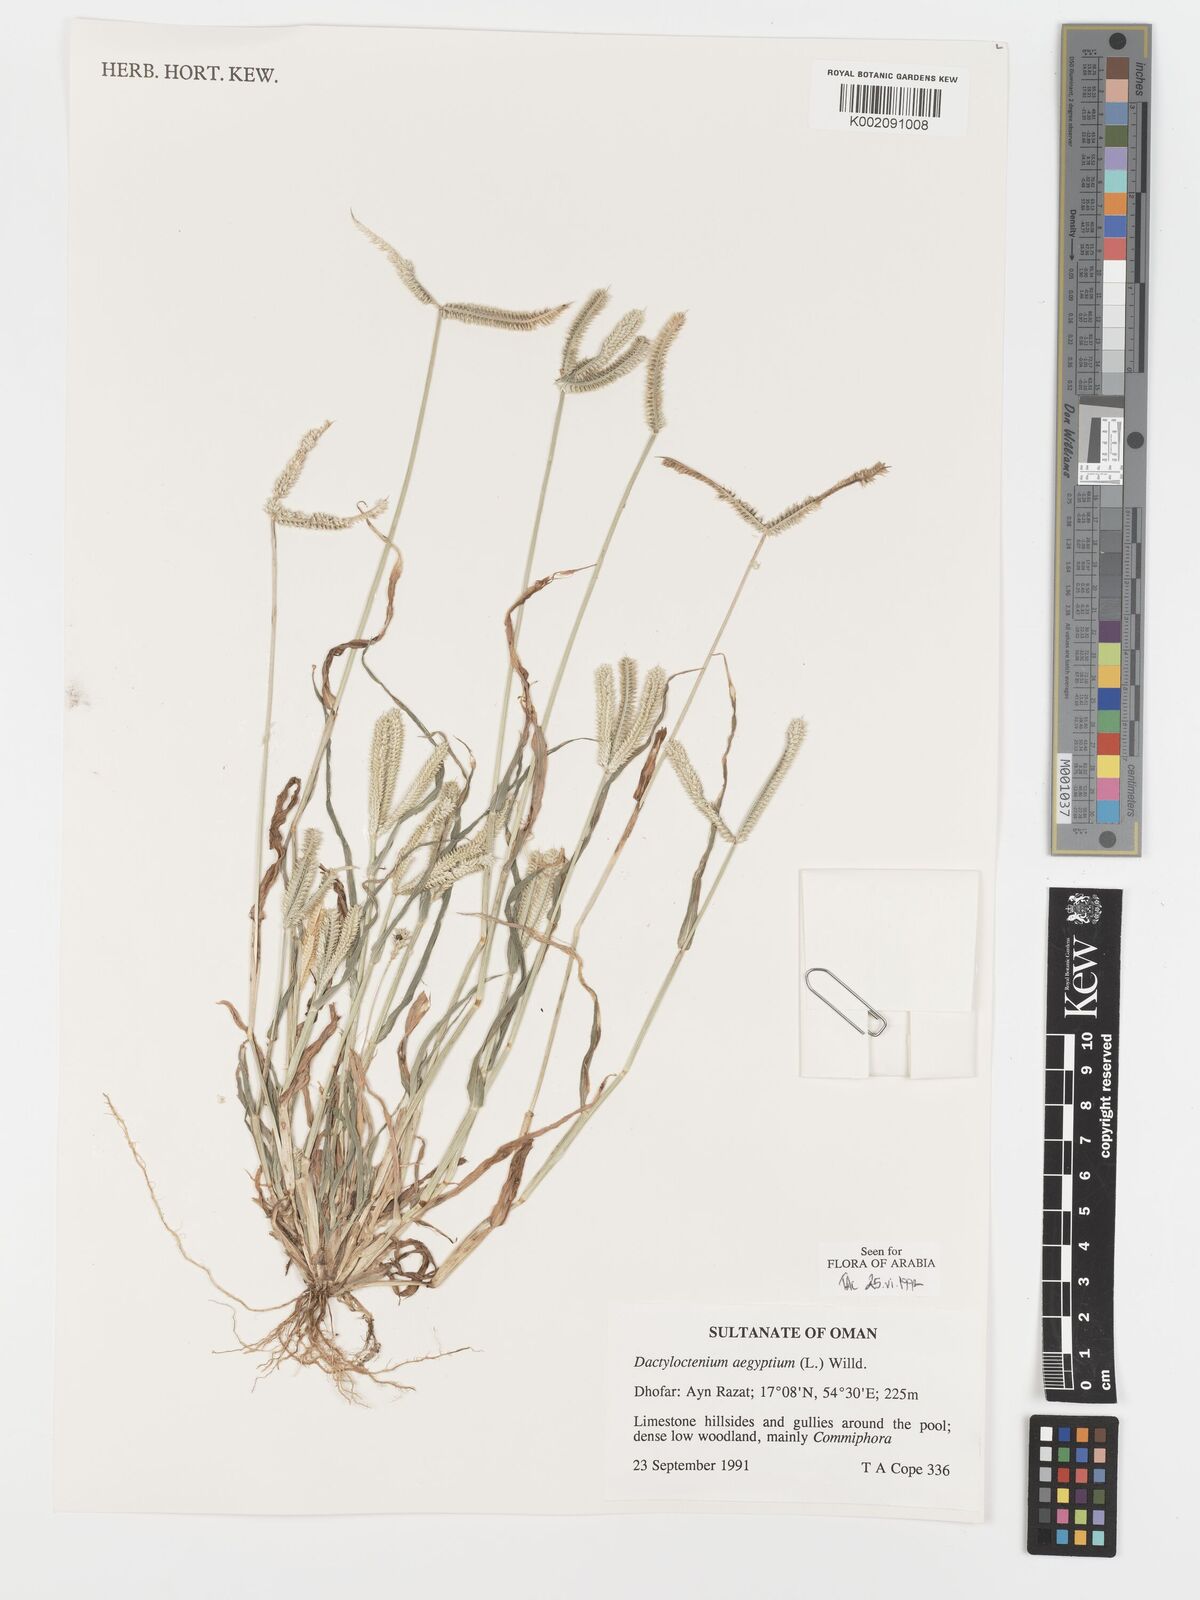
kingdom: Plantae
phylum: Tracheophyta
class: Liliopsida
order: Poales
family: Poaceae
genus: Dactyloctenium
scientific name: Dactyloctenium aegyptium
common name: Egyptian grass
